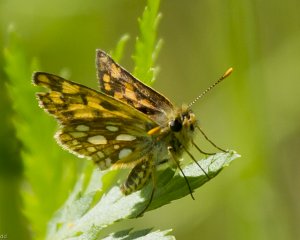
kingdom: Animalia
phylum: Arthropoda
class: Insecta
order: Lepidoptera
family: Hesperiidae
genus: Carterocephalus
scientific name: Carterocephalus palaemon
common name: Chequered Skipper
